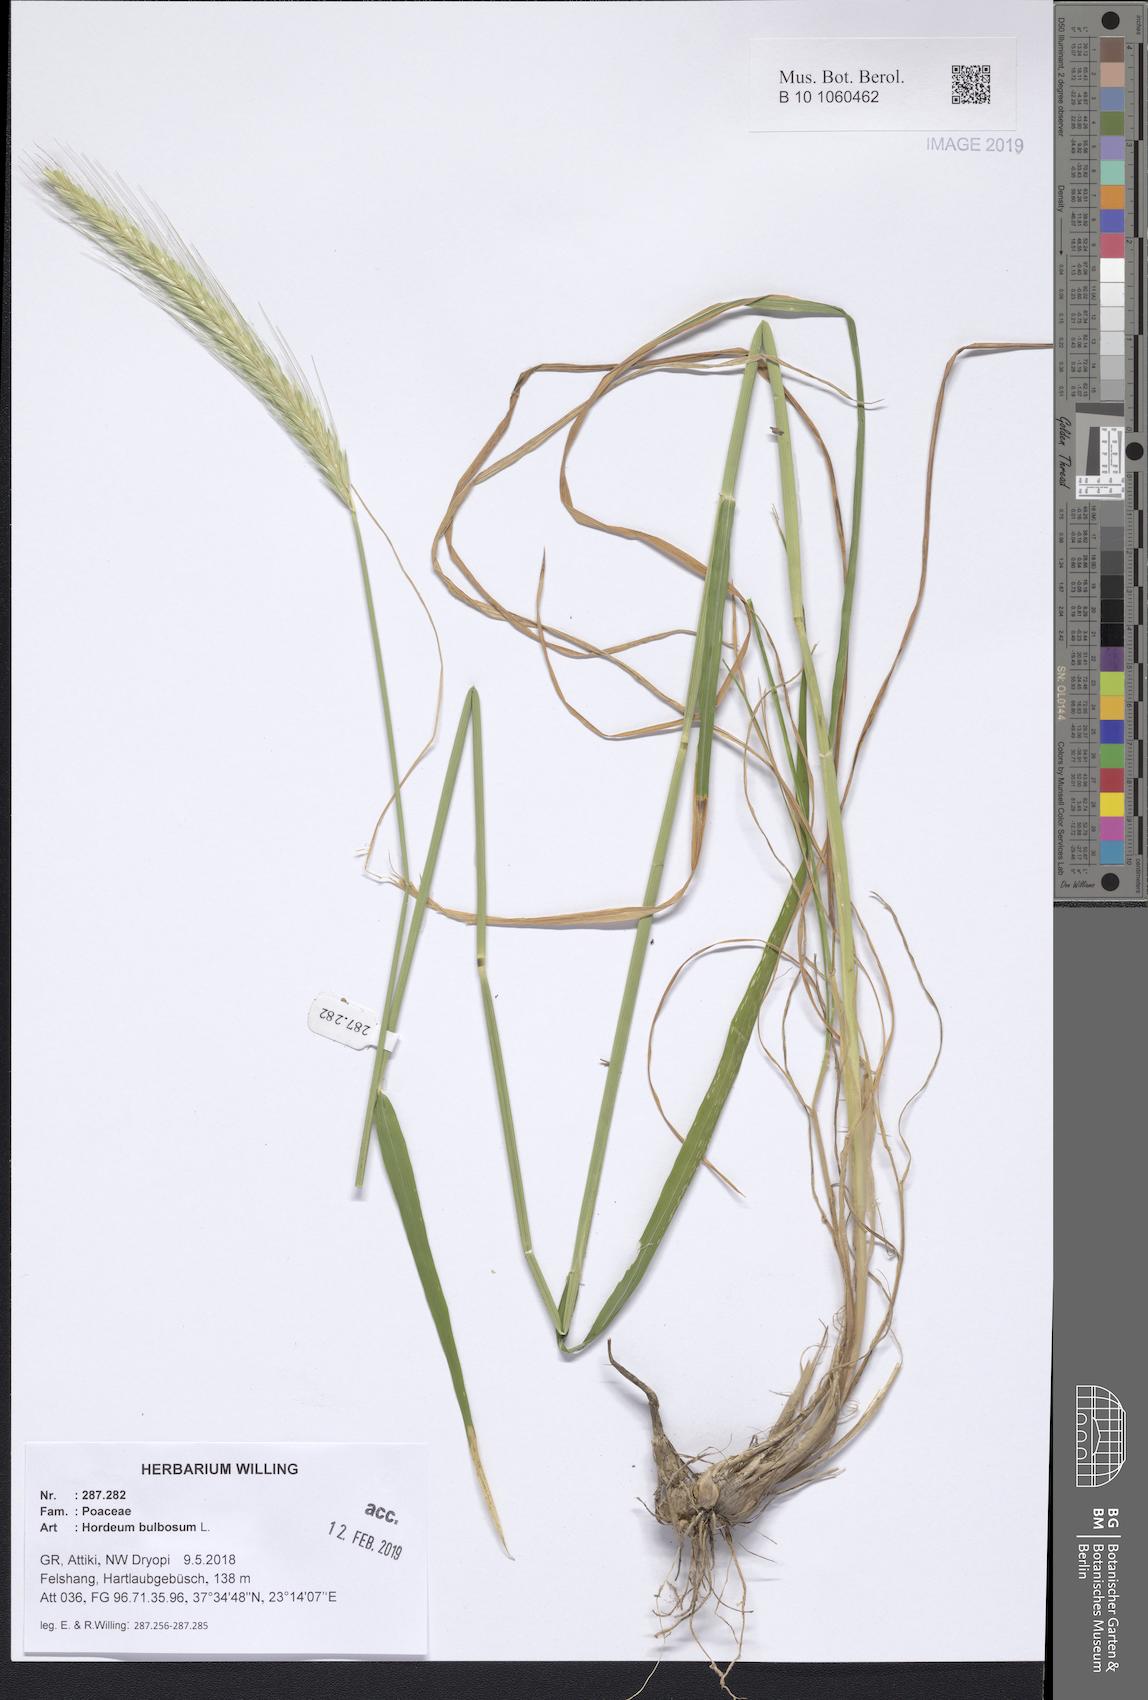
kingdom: Plantae
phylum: Tracheophyta
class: Liliopsida
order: Poales
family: Poaceae
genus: Hordeum
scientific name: Hordeum bulbosum
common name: Bulbous barley
